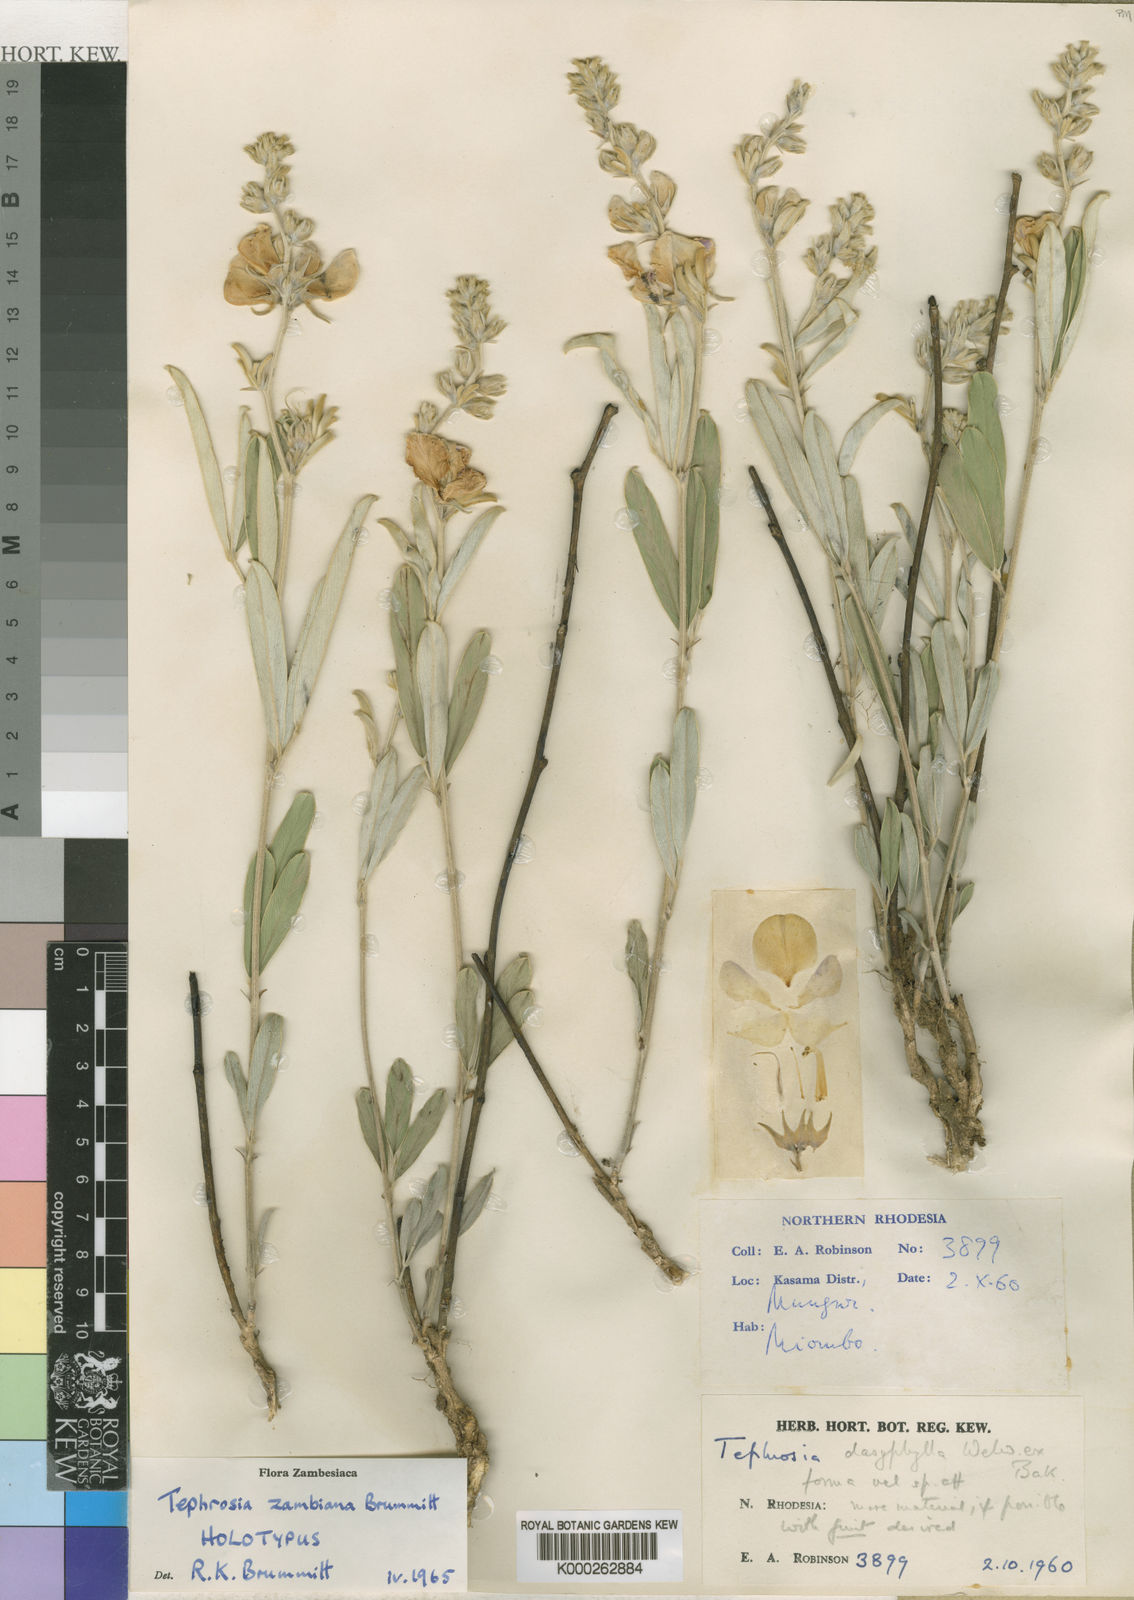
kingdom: Plantae
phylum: Tracheophyta
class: Magnoliopsida
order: Fabales
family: Fabaceae
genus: Tephrosia
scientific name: Tephrosia zambiana
